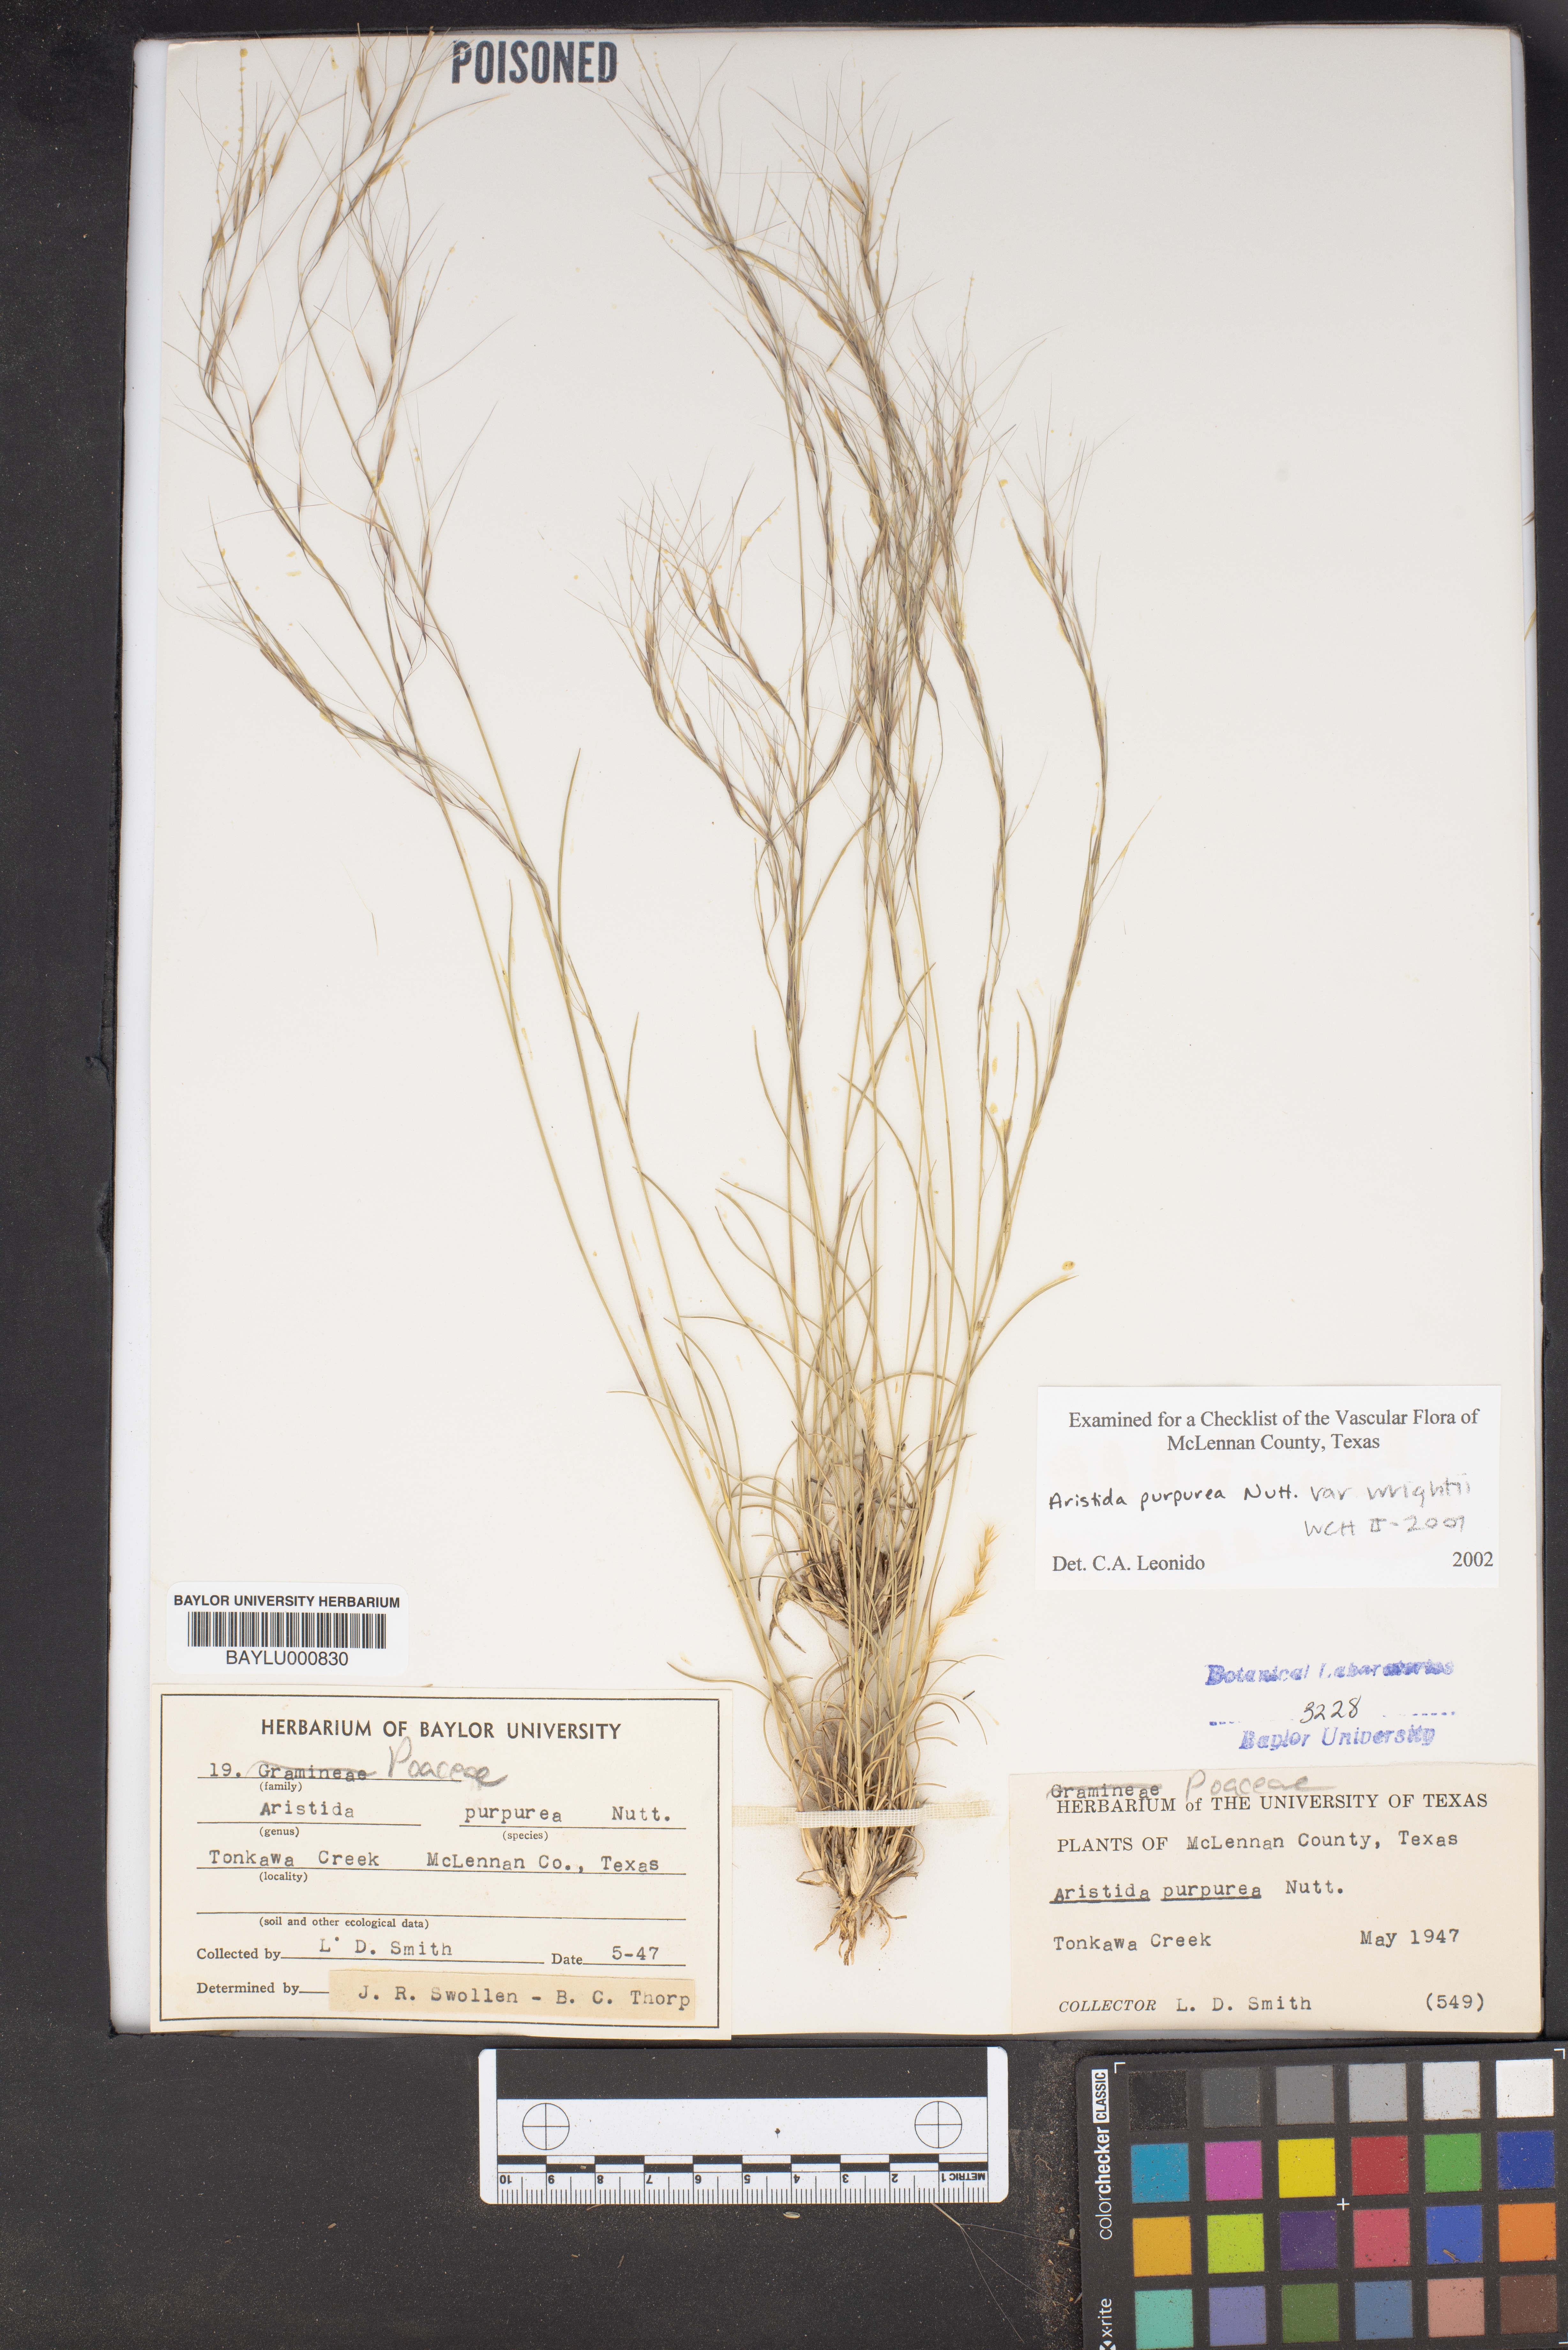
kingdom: Plantae
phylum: Tracheophyta
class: Liliopsida
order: Poales
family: Poaceae
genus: Aristida
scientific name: Aristida purpurea
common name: Purple threeawn
